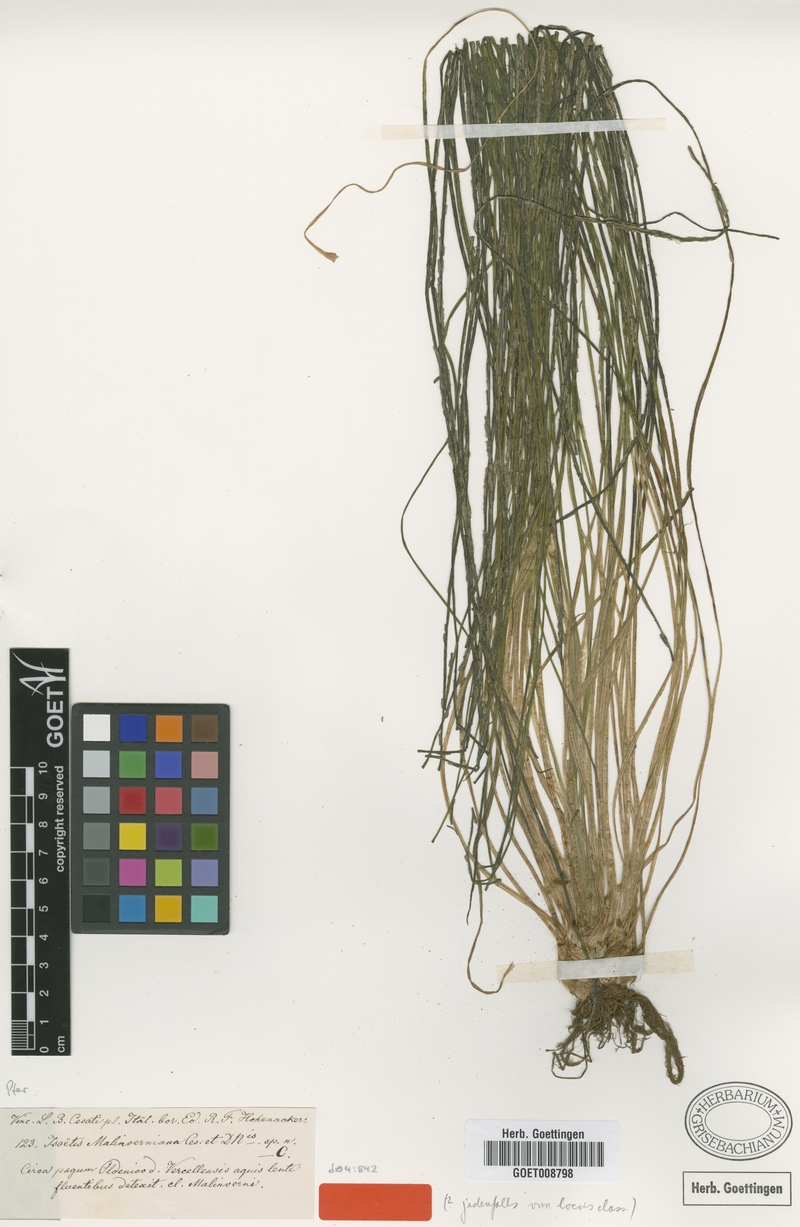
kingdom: Plantae
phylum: Tracheophyta
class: Lycopodiopsida
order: Isoetales
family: Isoetaceae
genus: Isoetes
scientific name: Isoetes malinverniana
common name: Piedmont quillwort
